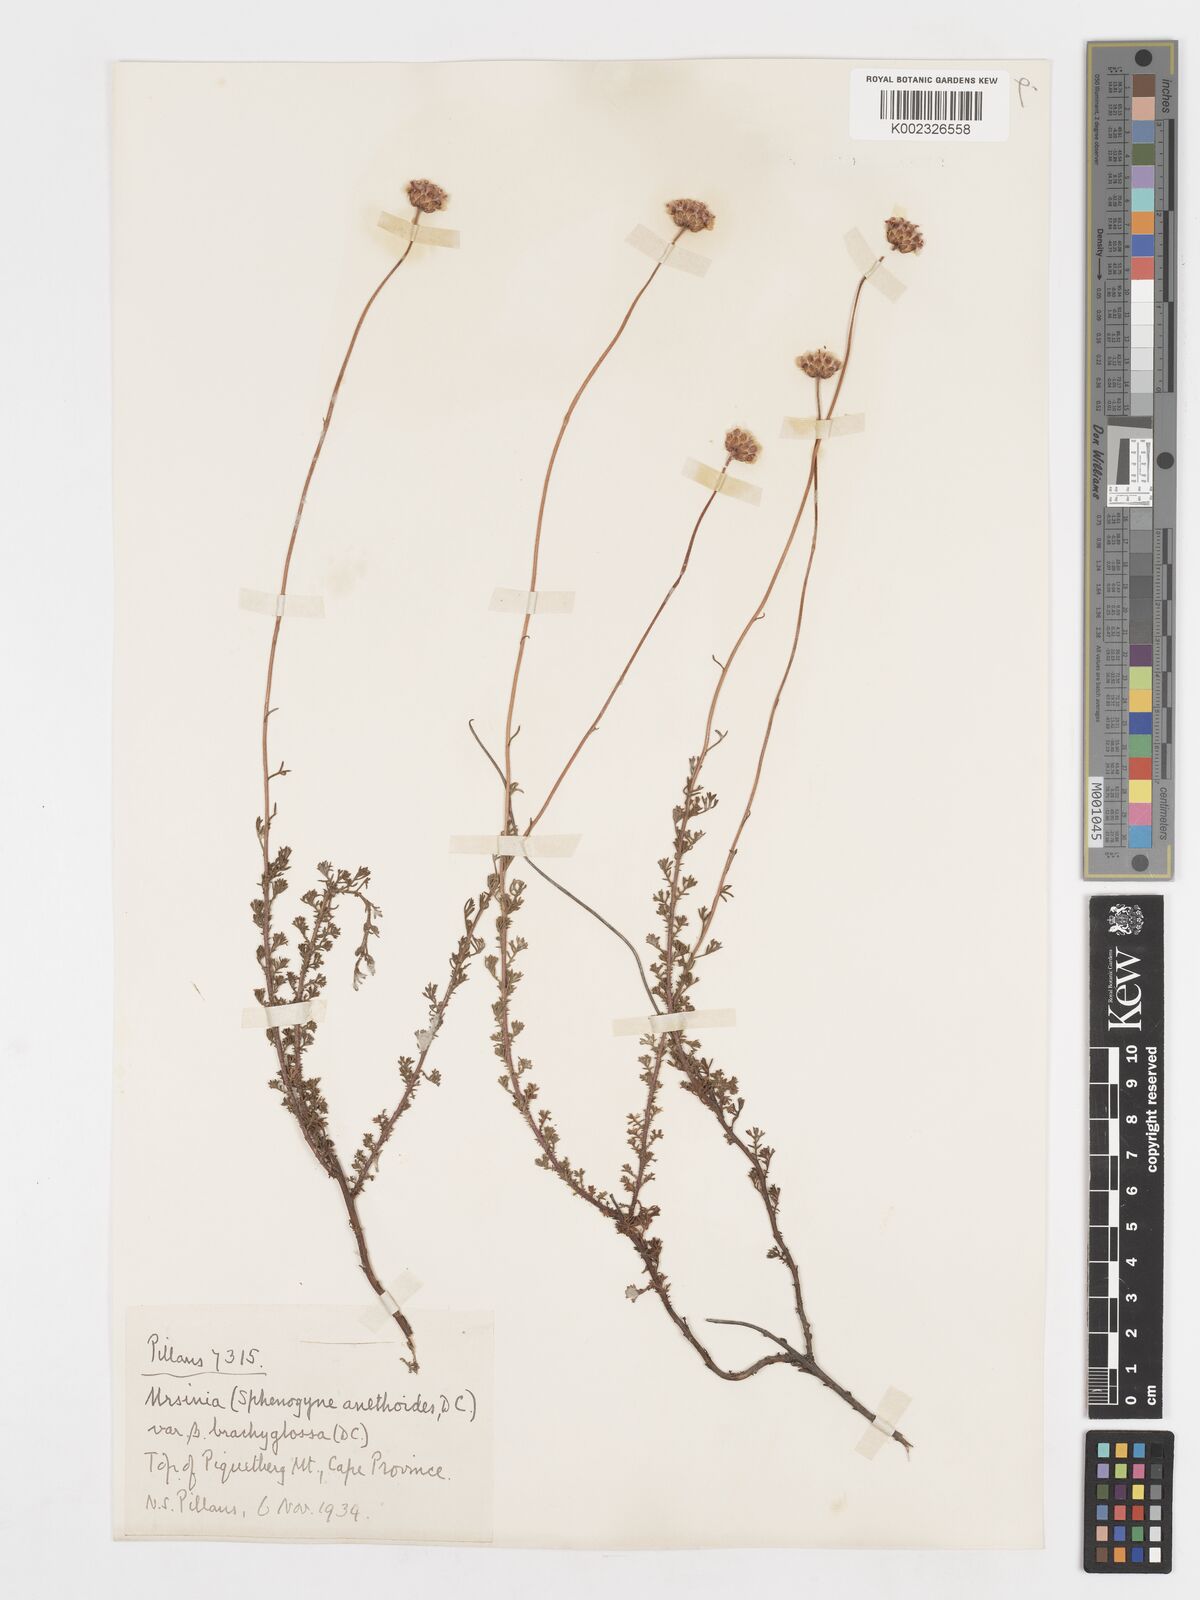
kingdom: Plantae
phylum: Tracheophyta
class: Magnoliopsida
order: Asterales
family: Asteraceae
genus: Ursinia
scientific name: Ursinia anethoides
